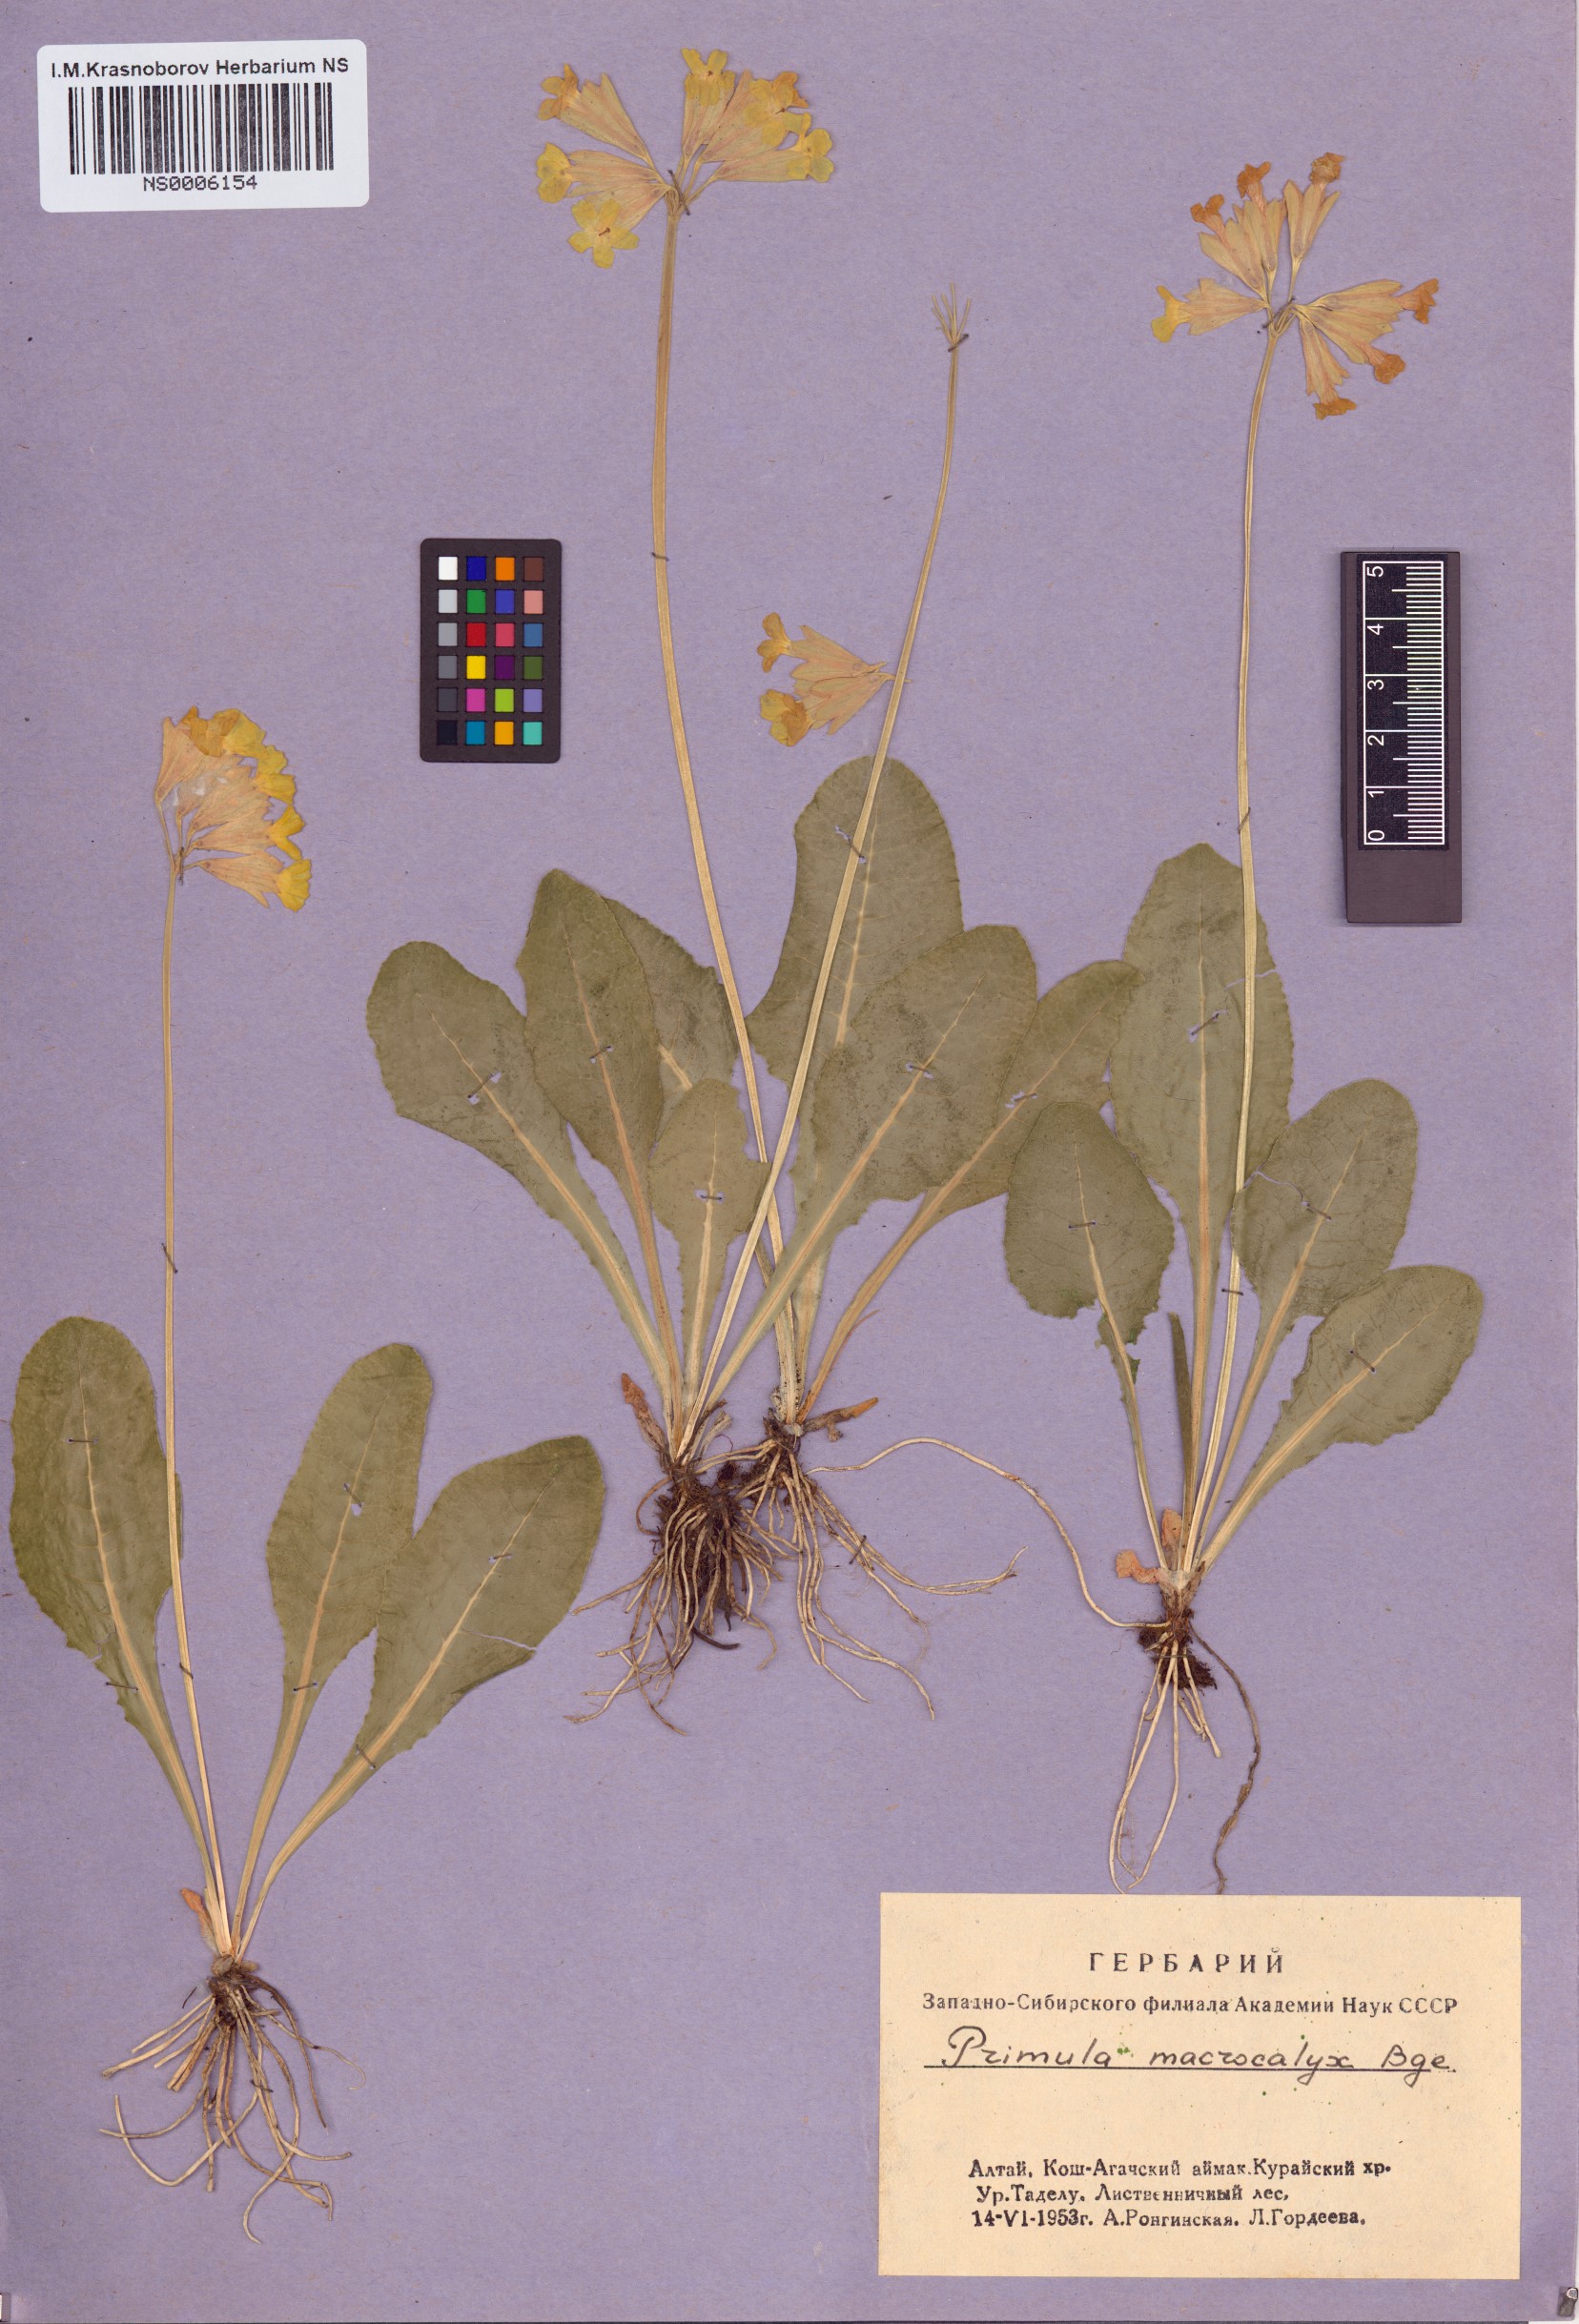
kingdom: Plantae
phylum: Tracheophyta
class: Magnoliopsida
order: Ericales
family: Primulaceae
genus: Primula
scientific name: Primula veris
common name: Cowslip
